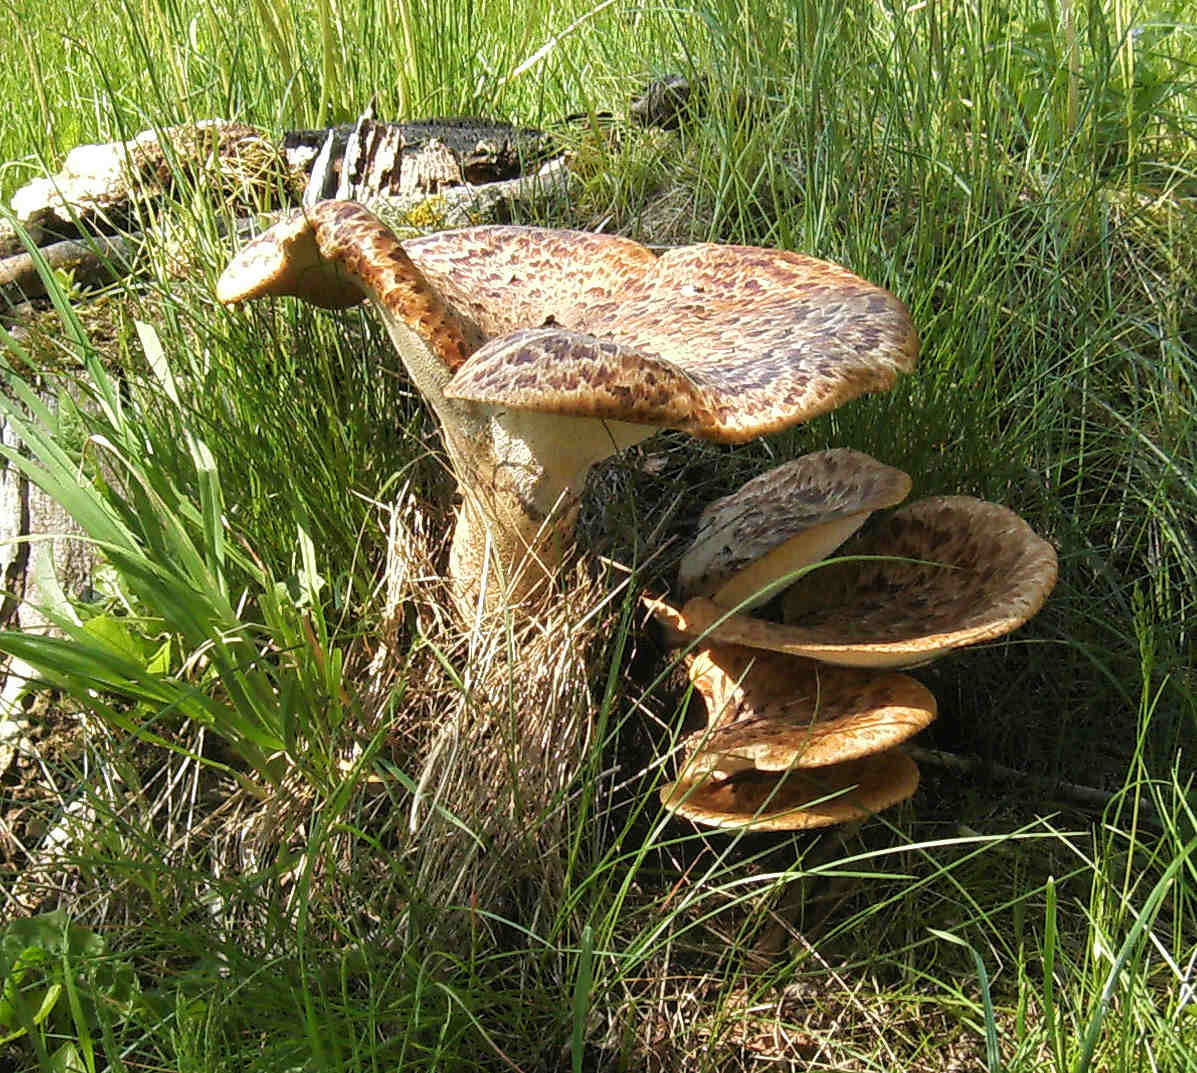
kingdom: Fungi
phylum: Basidiomycota
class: Agaricomycetes
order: Polyporales
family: Polyporaceae
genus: Cerioporus
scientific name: Cerioporus squamosus
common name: skællet stilkporesvamp
